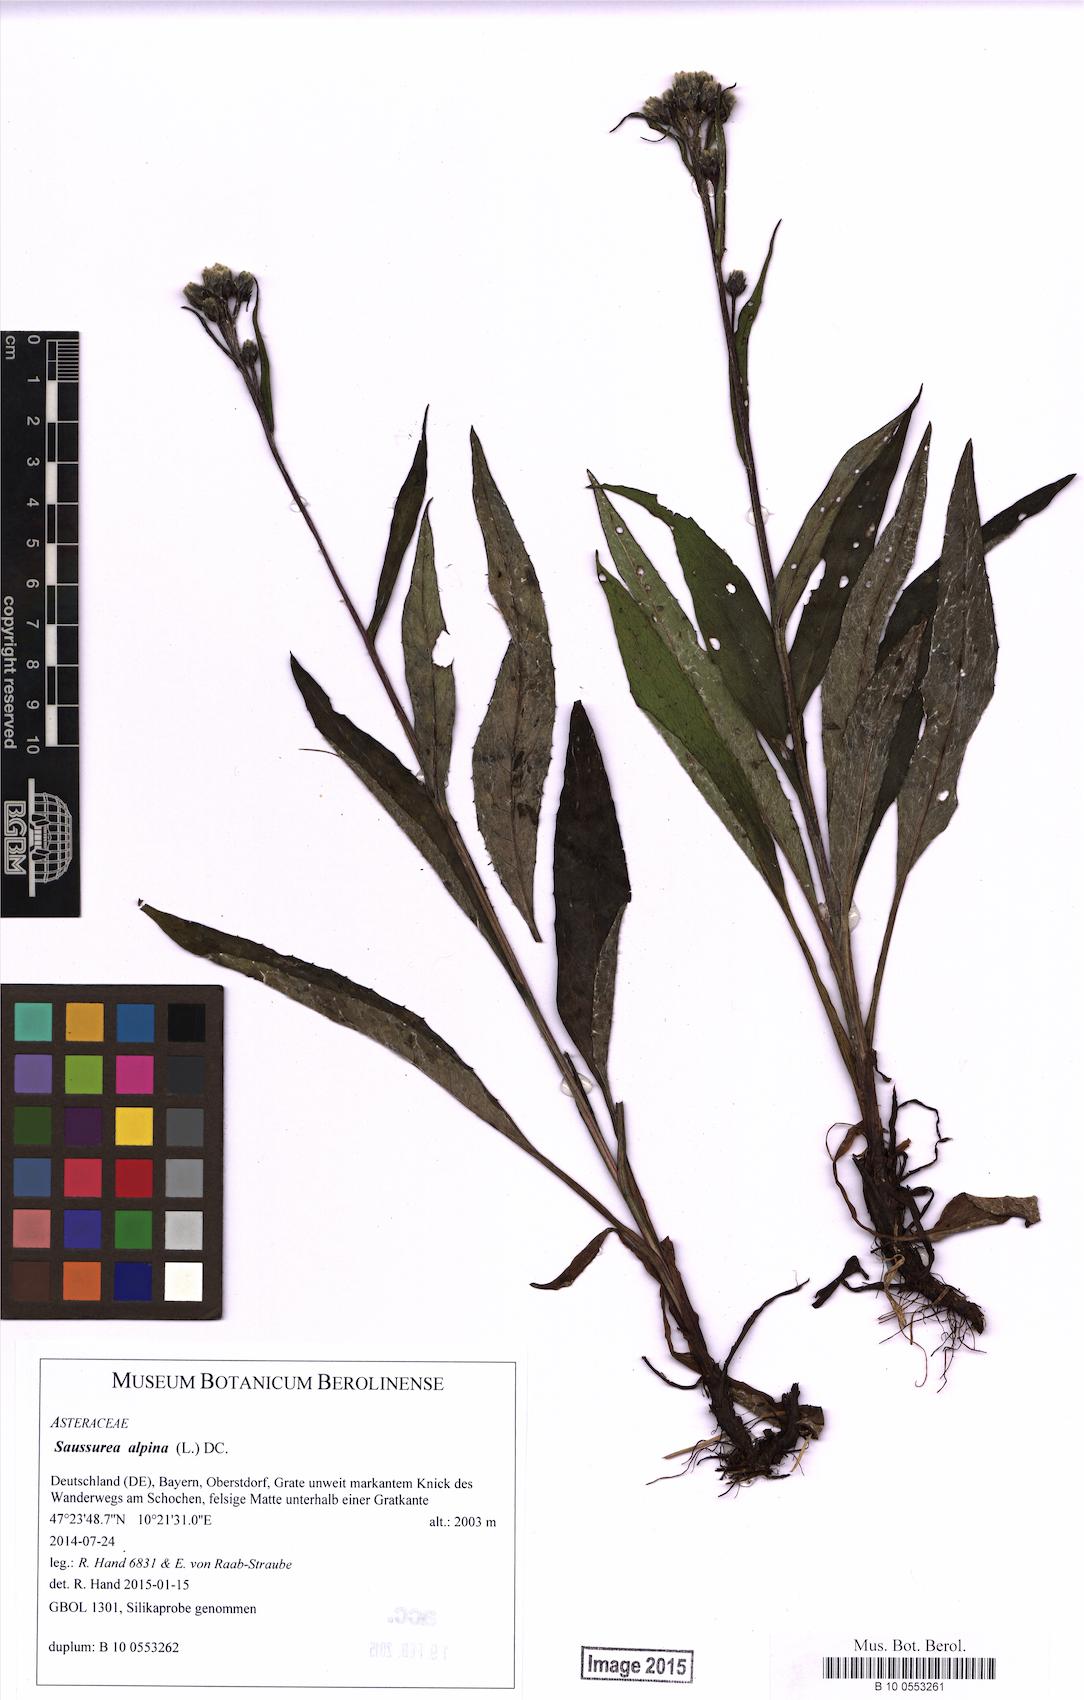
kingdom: Plantae
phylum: Tracheophyta
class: Magnoliopsida
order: Asterales
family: Asteraceae
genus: Saussurea
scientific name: Saussurea alpina
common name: Alpine saw-wort
